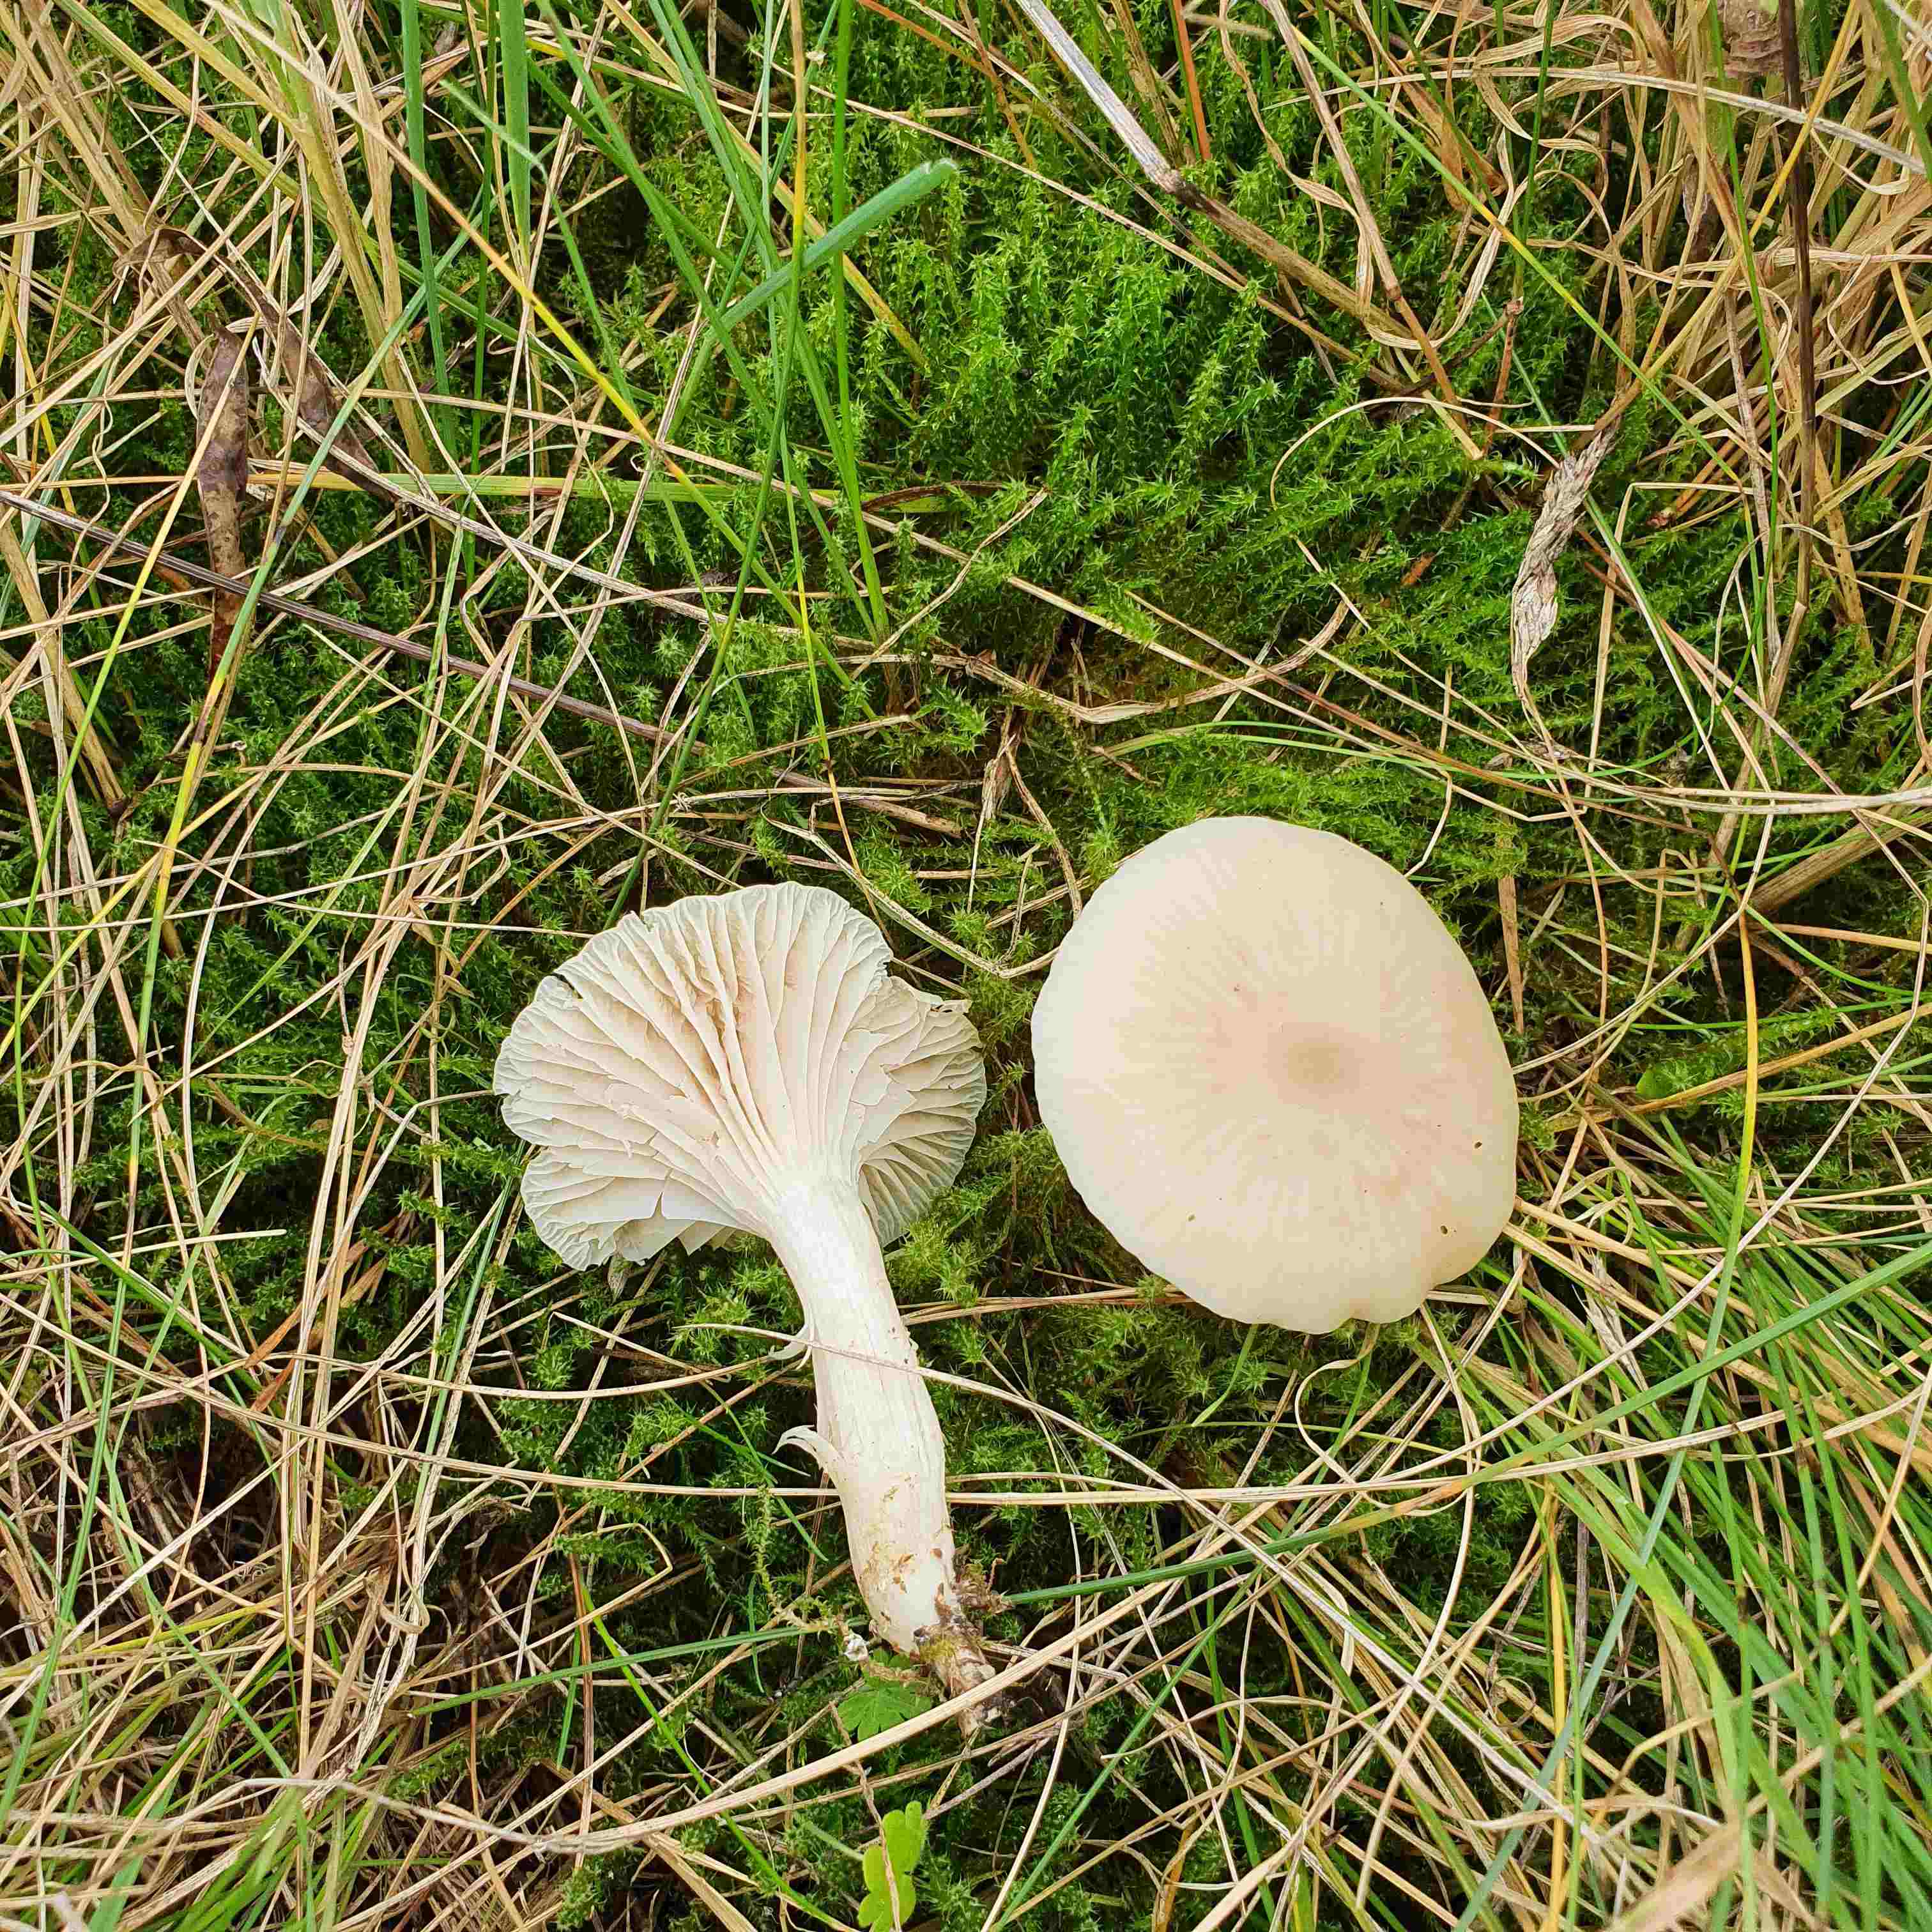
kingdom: Fungi
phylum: Basidiomycota
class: Agaricomycetes
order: Agaricales
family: Hygrophoraceae
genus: Cuphophyllus
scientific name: Cuphophyllus virgineus
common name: snehvid vokshat
